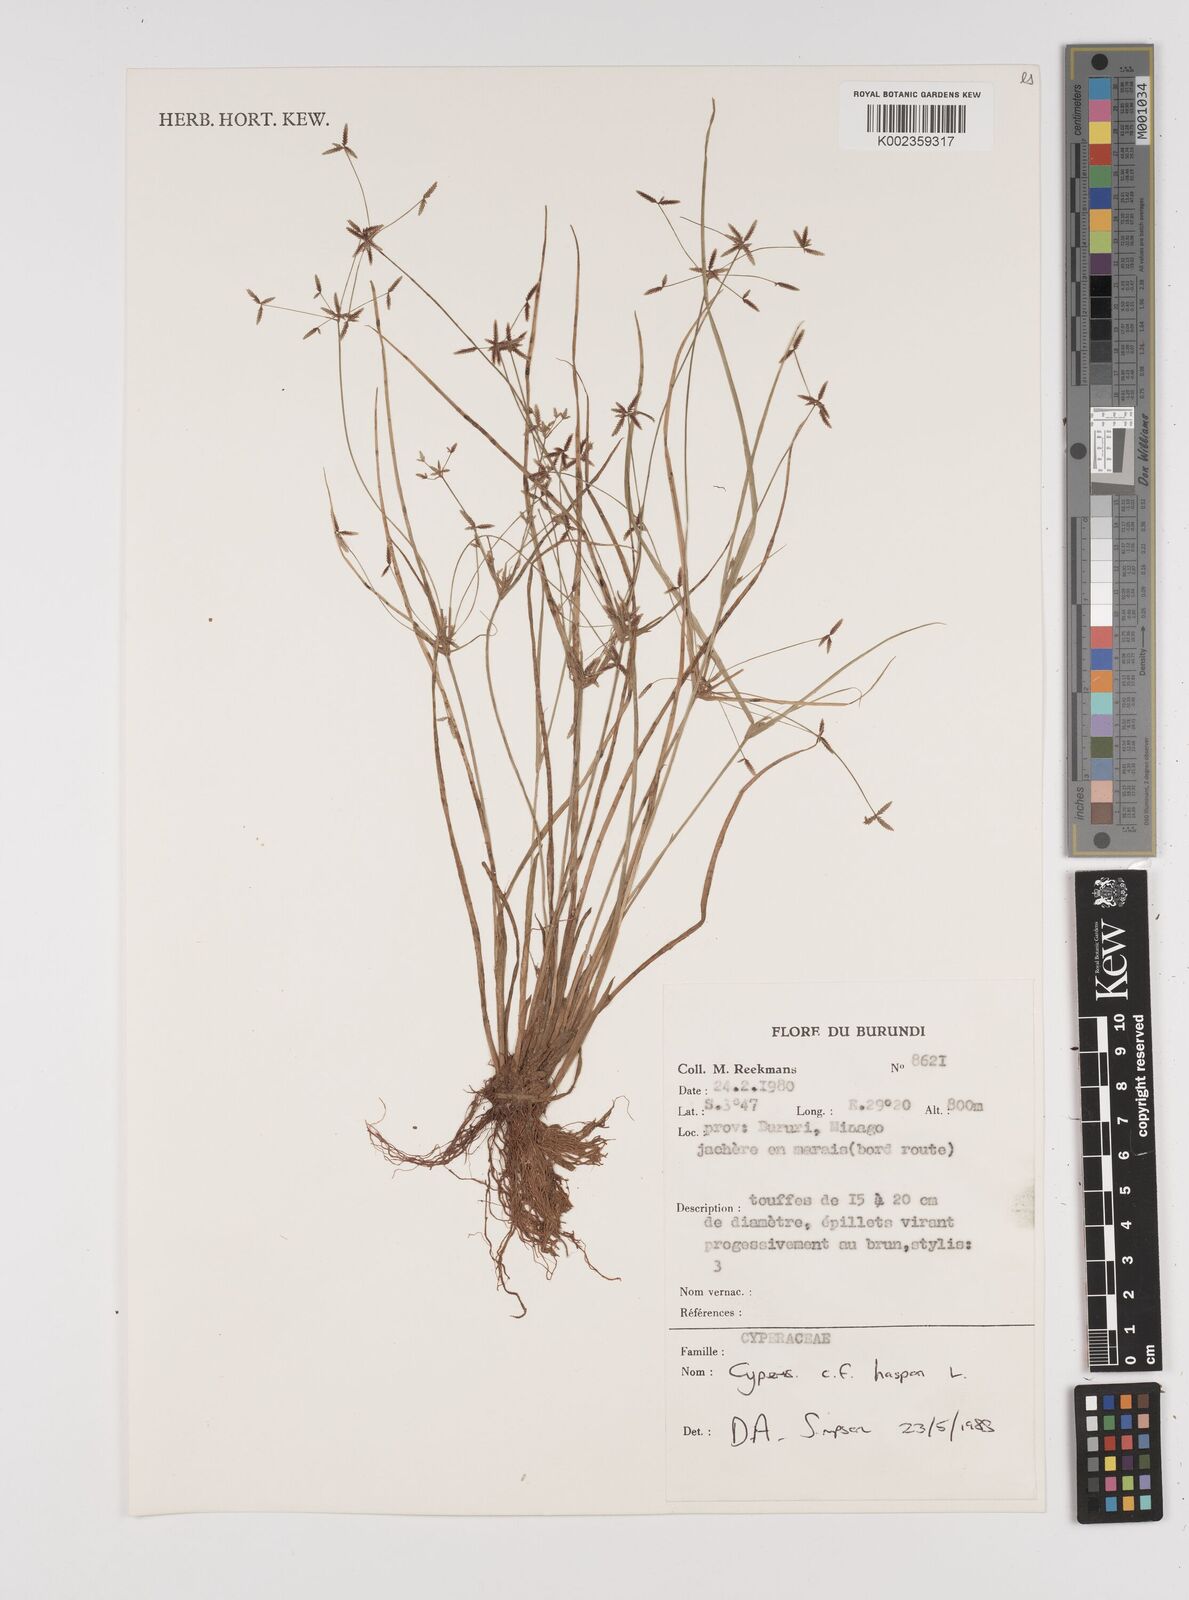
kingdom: Plantae
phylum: Tracheophyta
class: Liliopsida
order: Poales
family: Cyperaceae
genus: Cyperus
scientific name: Cyperus haspan
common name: Haspan flatsedge
